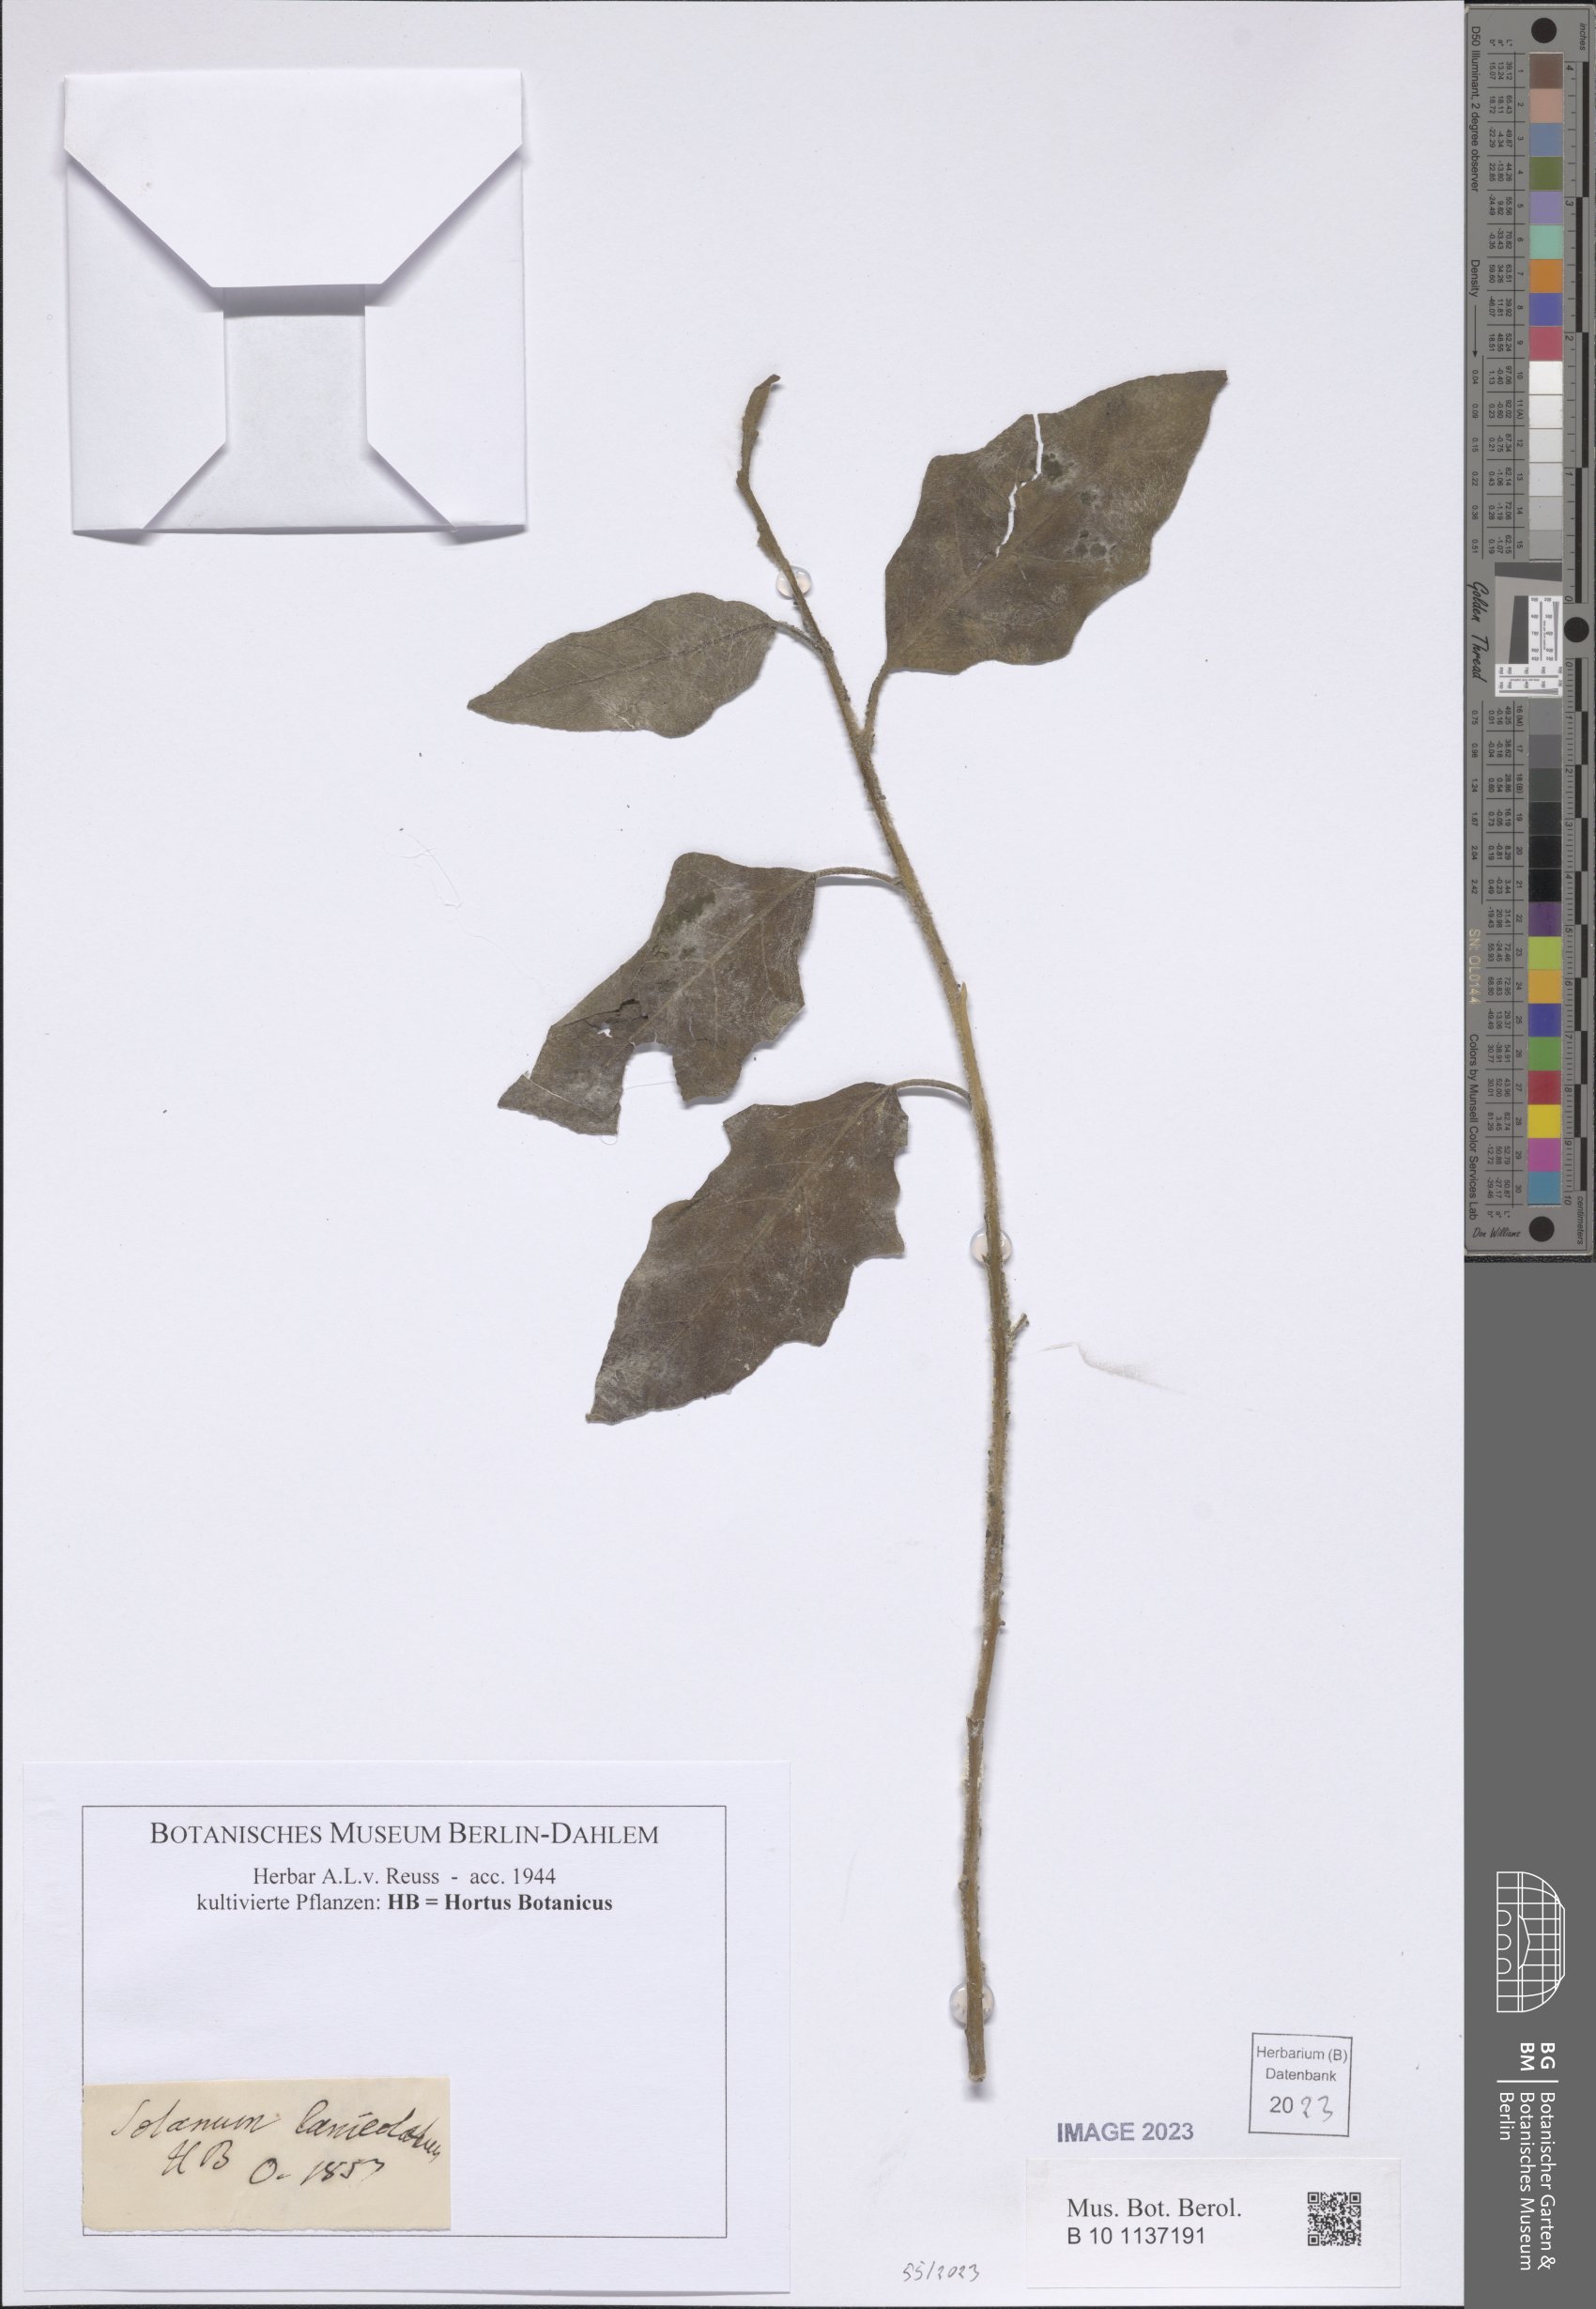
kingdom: Plantae
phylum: Tracheophyta
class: Magnoliopsida
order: Solanales
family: Solanaceae
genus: Solanum
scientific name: Solanum lanceolatum
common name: Orangeberry nightshade
